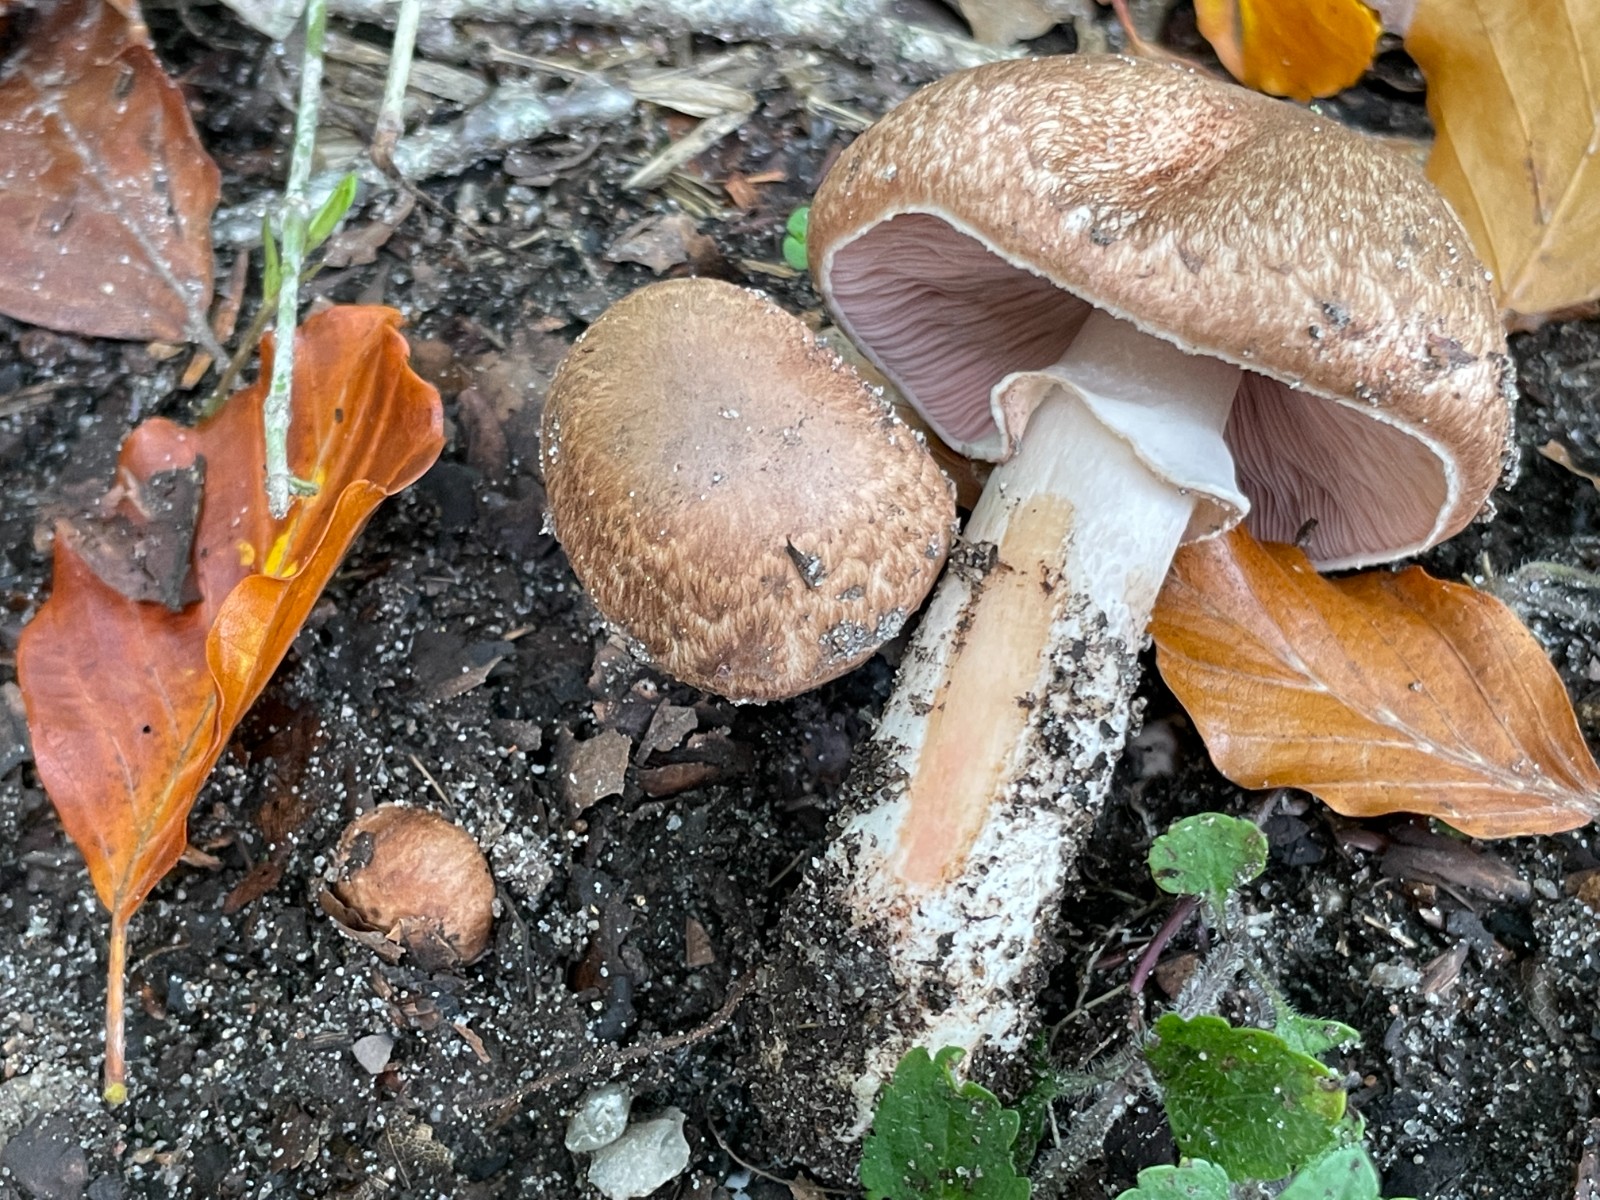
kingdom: Fungi
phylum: Basidiomycota
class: Agaricomycetes
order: Agaricales
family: Agaricaceae
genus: Agaricus
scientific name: Agaricus langei
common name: stor blod-champignon
